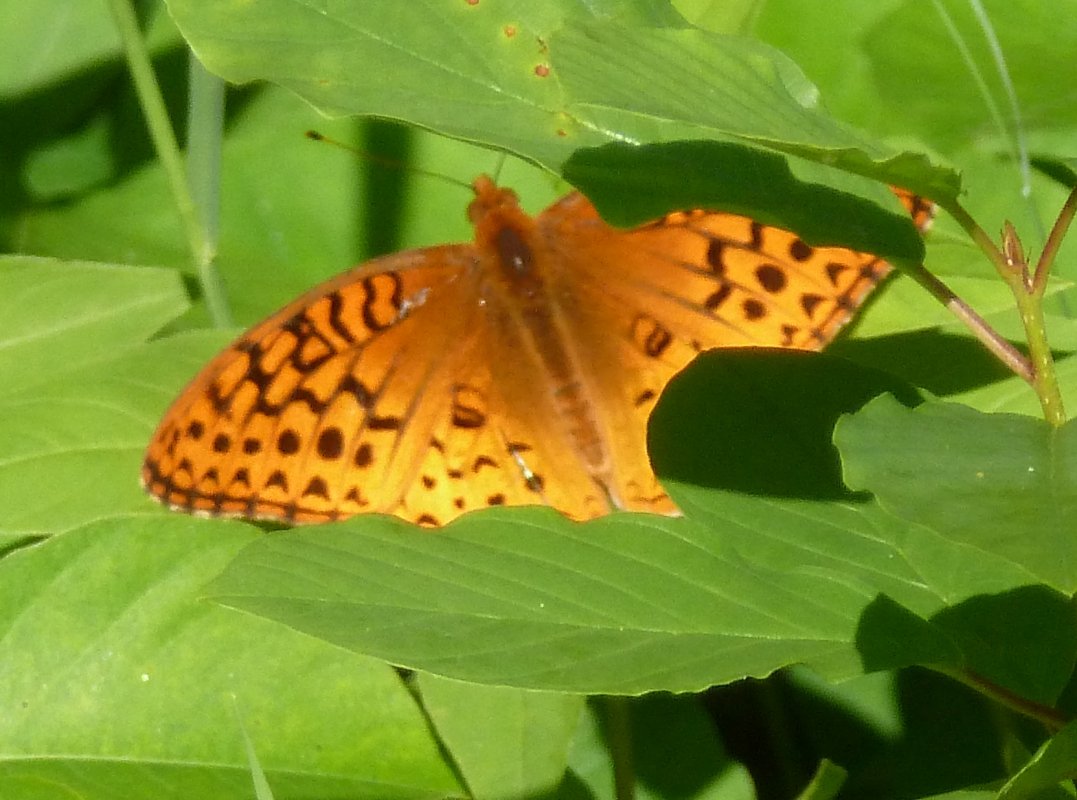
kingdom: Animalia
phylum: Arthropoda
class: Insecta
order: Lepidoptera
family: Nymphalidae
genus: Speyeria
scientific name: Speyeria cybele
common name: Great Spangled Fritillary
